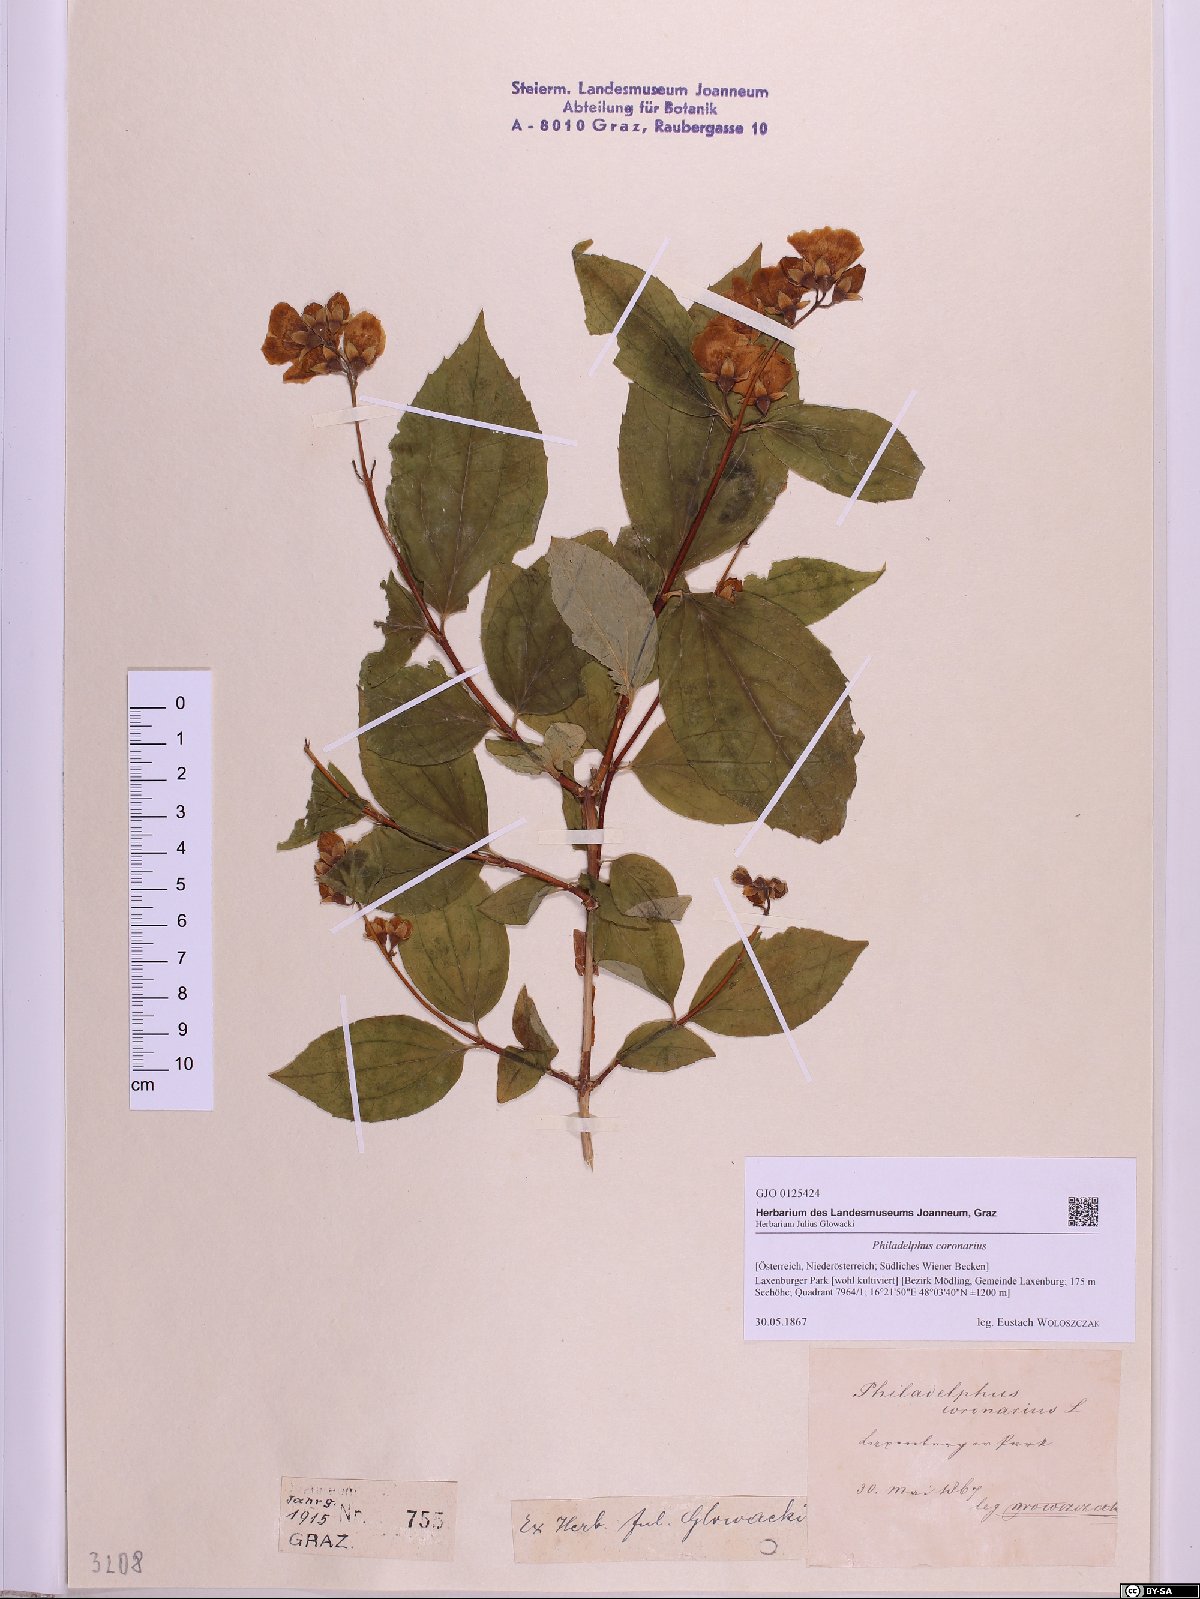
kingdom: Plantae
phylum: Tracheophyta
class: Magnoliopsida
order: Cornales
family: Hydrangeaceae
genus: Philadelphus
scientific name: Philadelphus coronarius
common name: Mock orange
